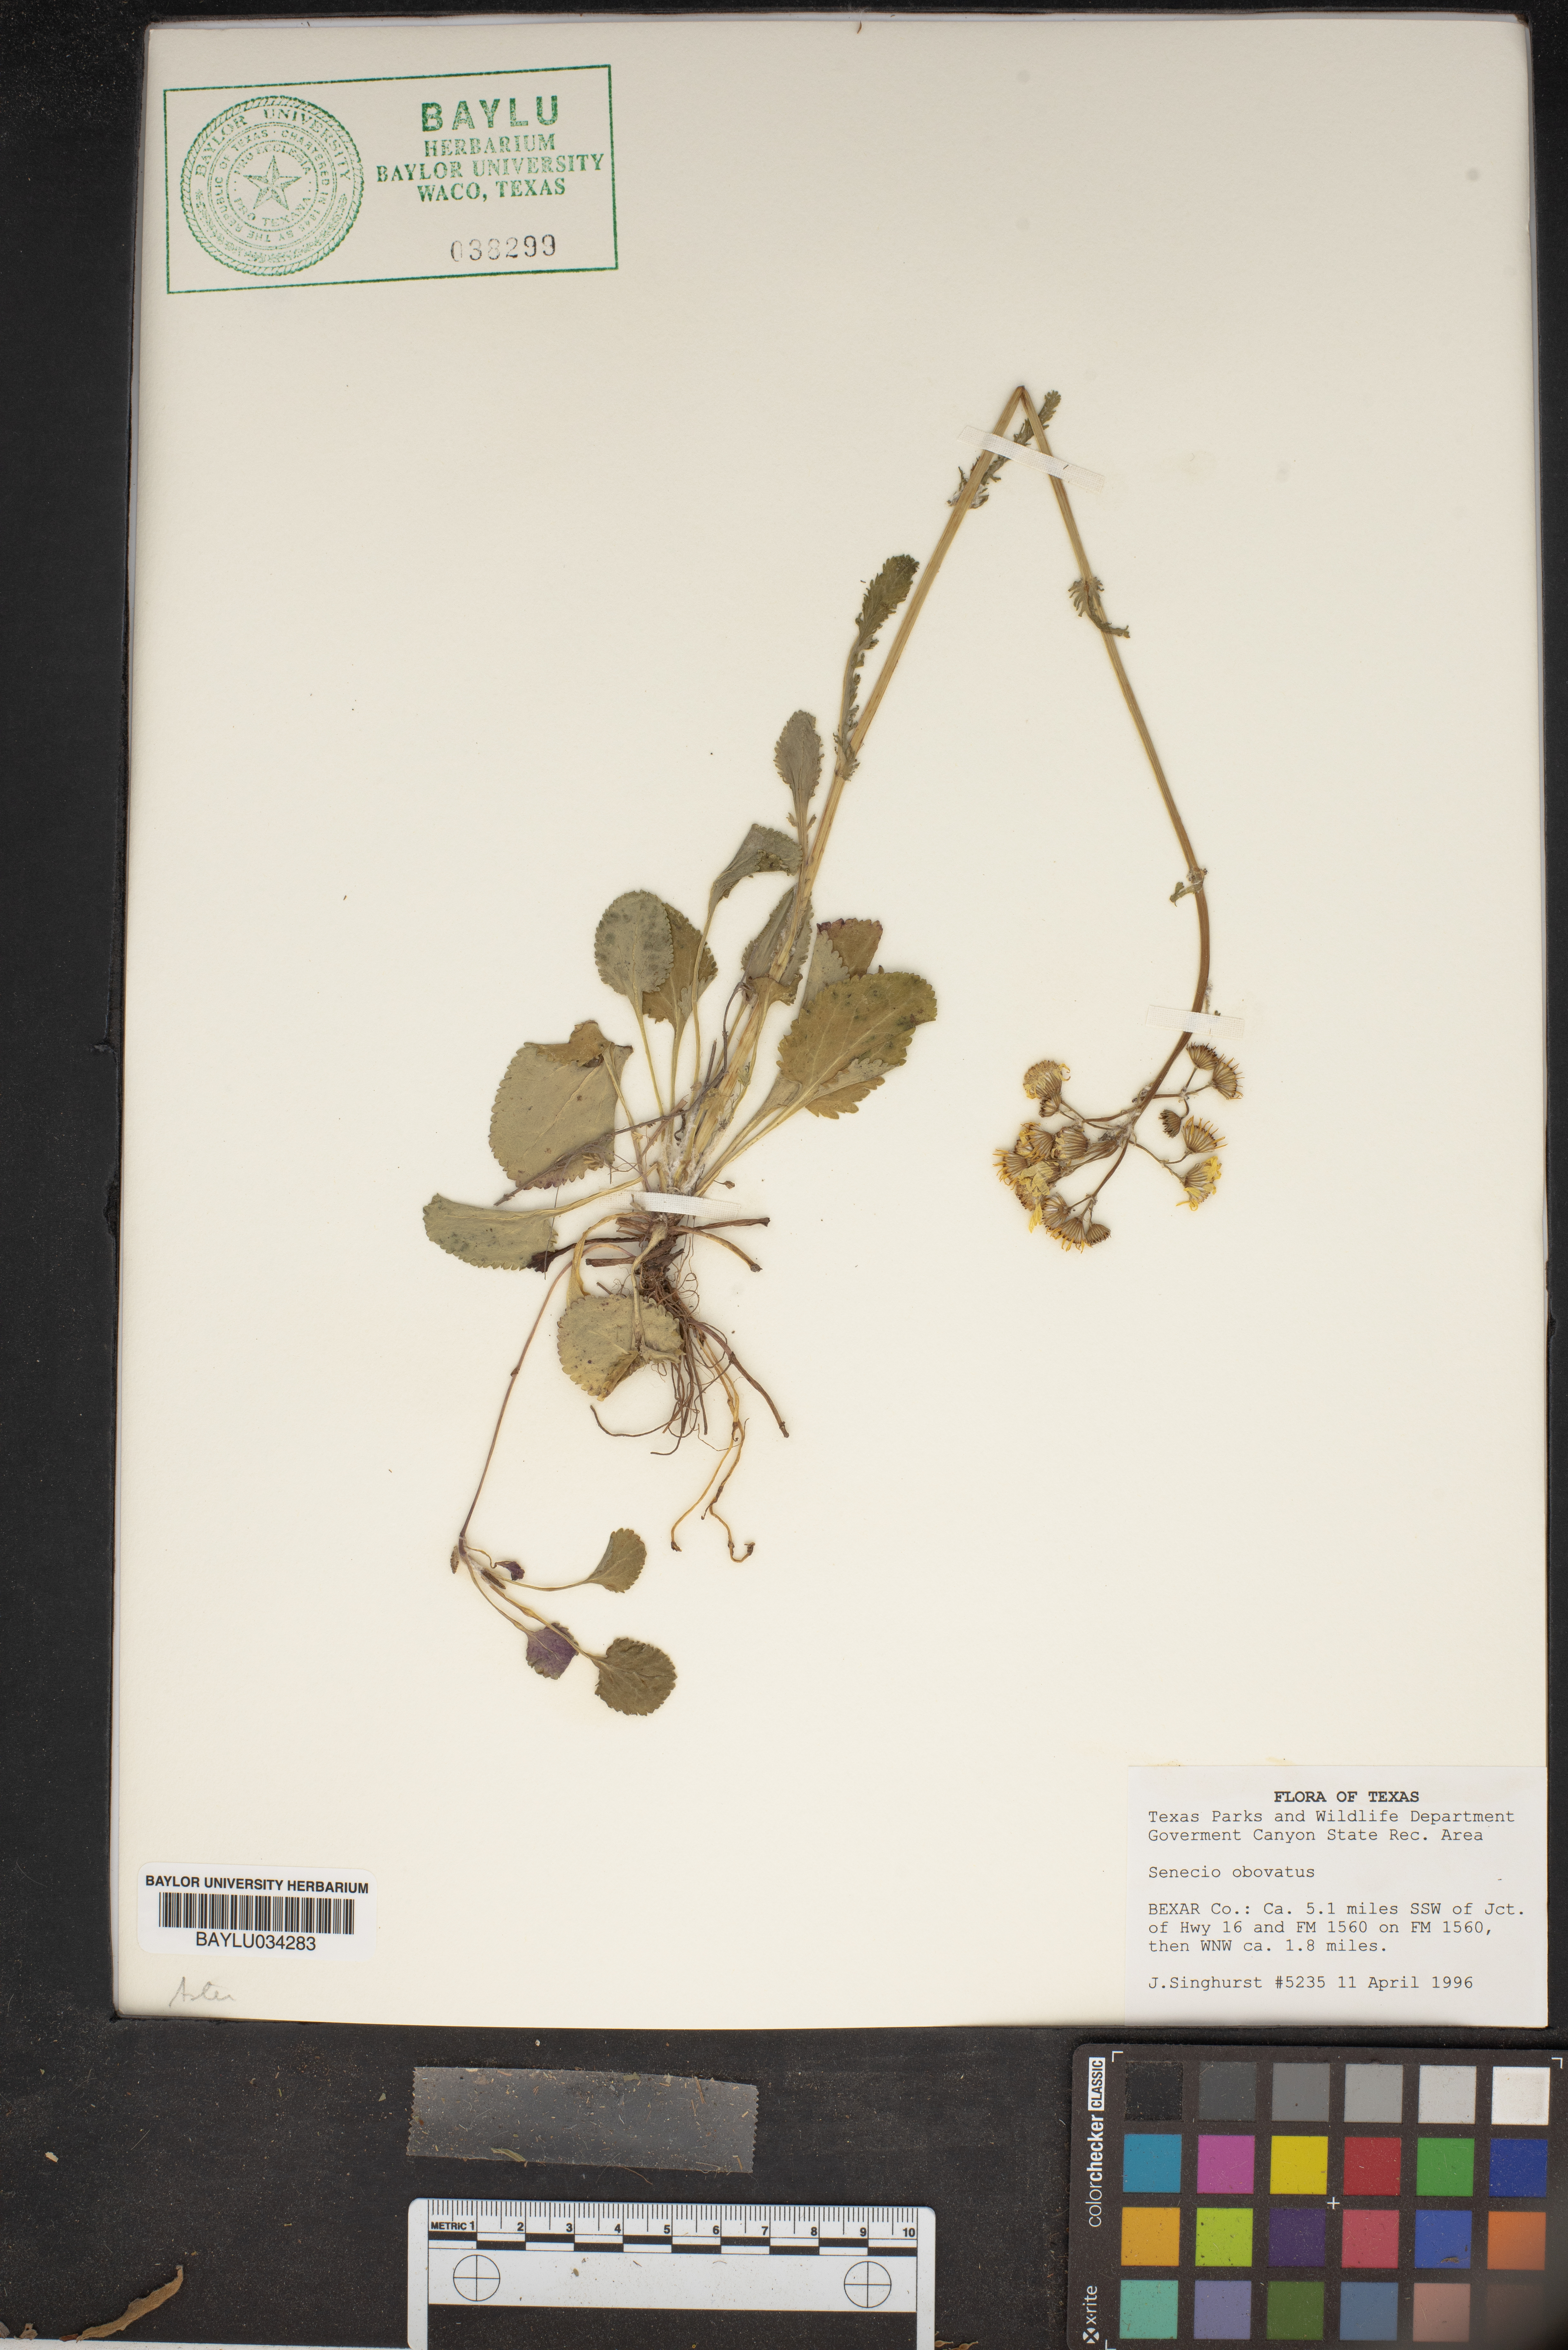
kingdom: Plantae
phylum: Tracheophyta
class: Magnoliopsida
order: Asterales
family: Asteraceae
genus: Senecio
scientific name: Senecio provincialis
